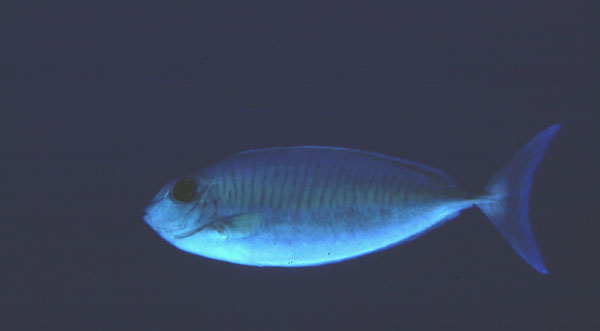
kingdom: Animalia
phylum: Chordata
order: Perciformes
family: Acanthuridae
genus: Naso
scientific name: Naso thynnoides
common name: Oneknife unicornfish
